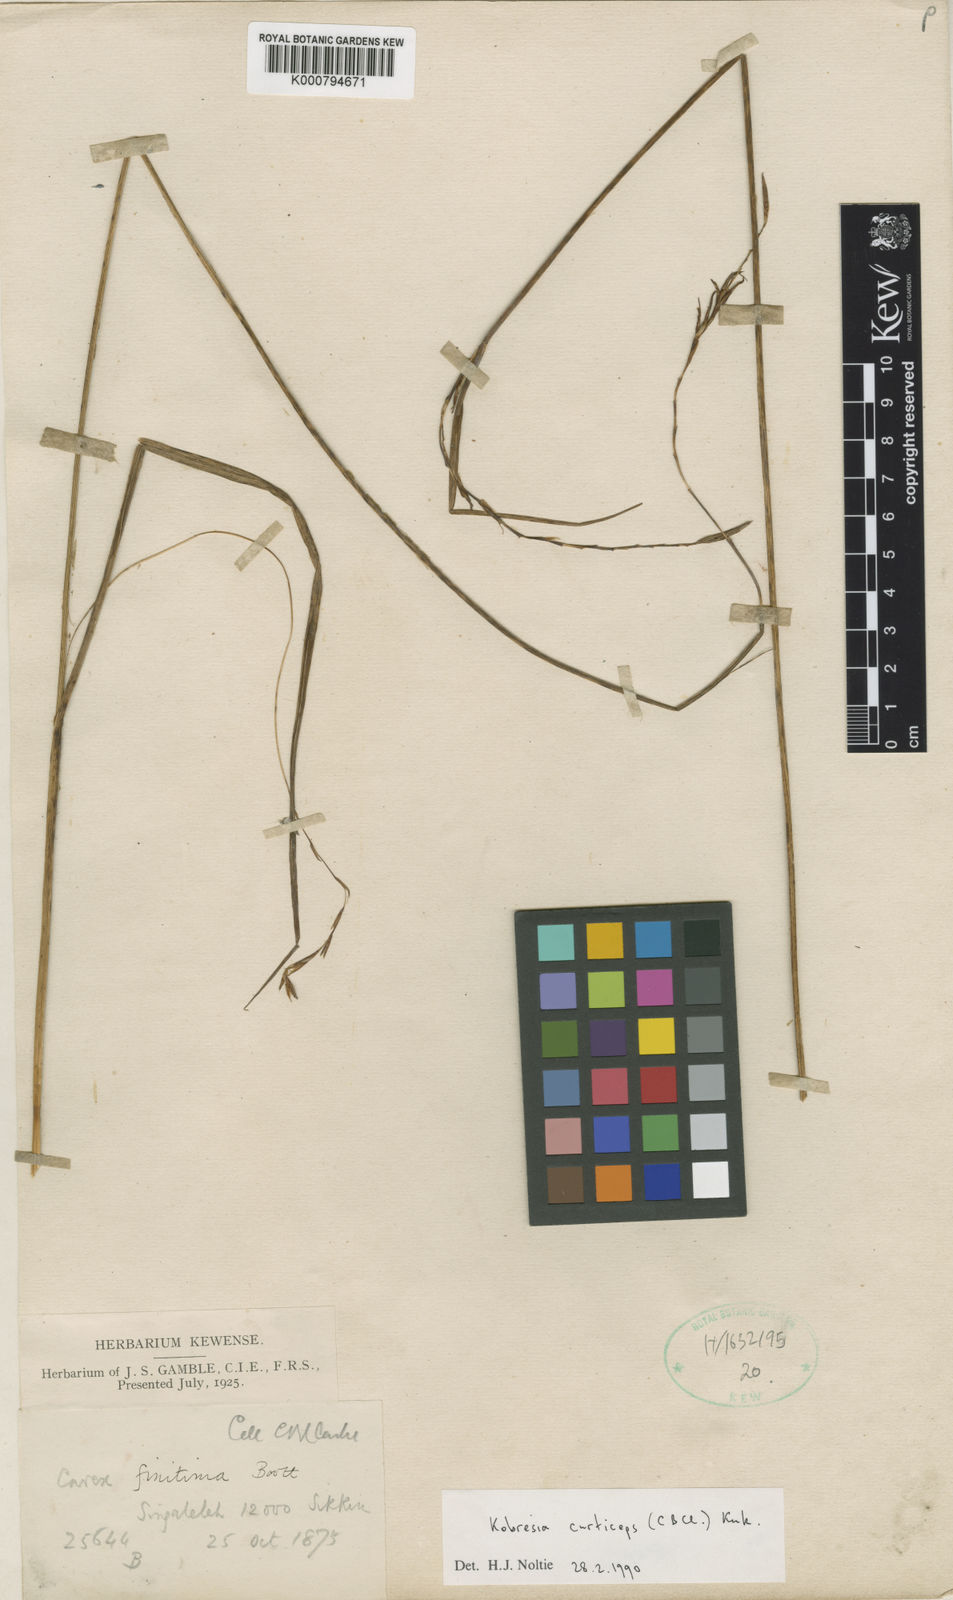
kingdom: Plantae
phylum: Tracheophyta
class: Liliopsida
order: Poales
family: Cyperaceae
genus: Carex
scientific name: Carex
